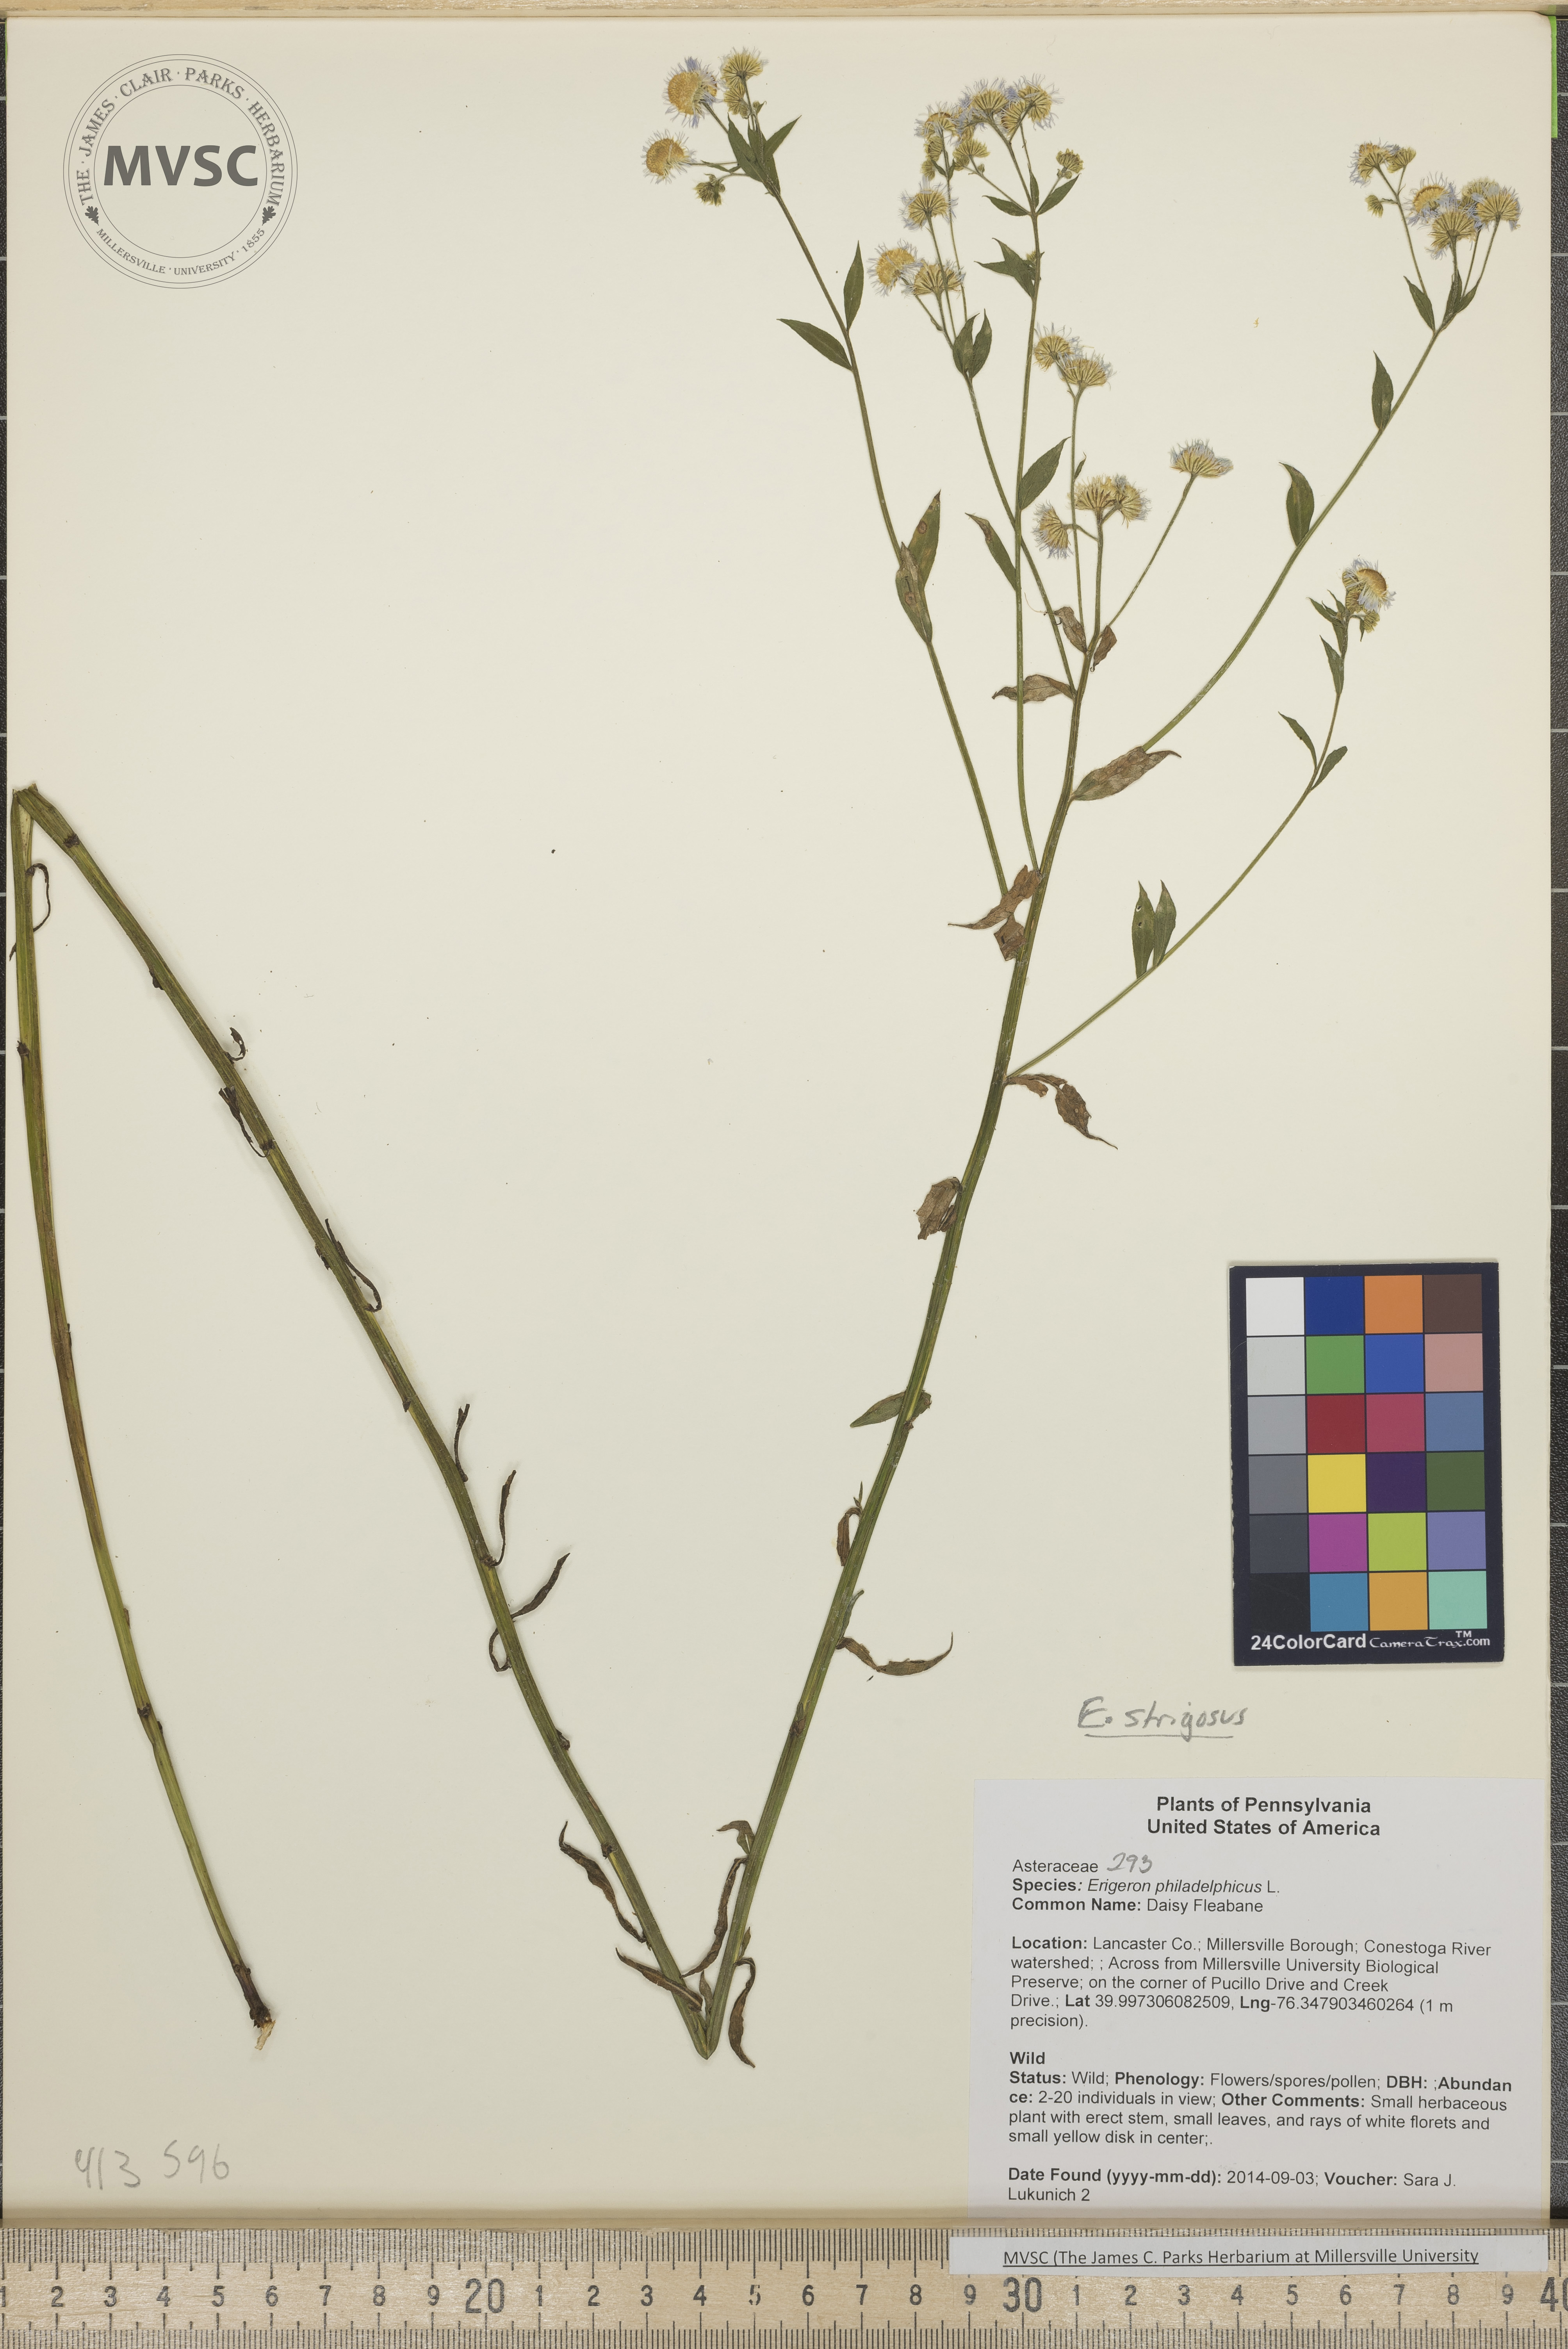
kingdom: Plantae
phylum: Tracheophyta
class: Magnoliopsida
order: Asterales
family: Asteraceae
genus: Erigeron
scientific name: Erigeron strigosus
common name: Daisy Fleabane
